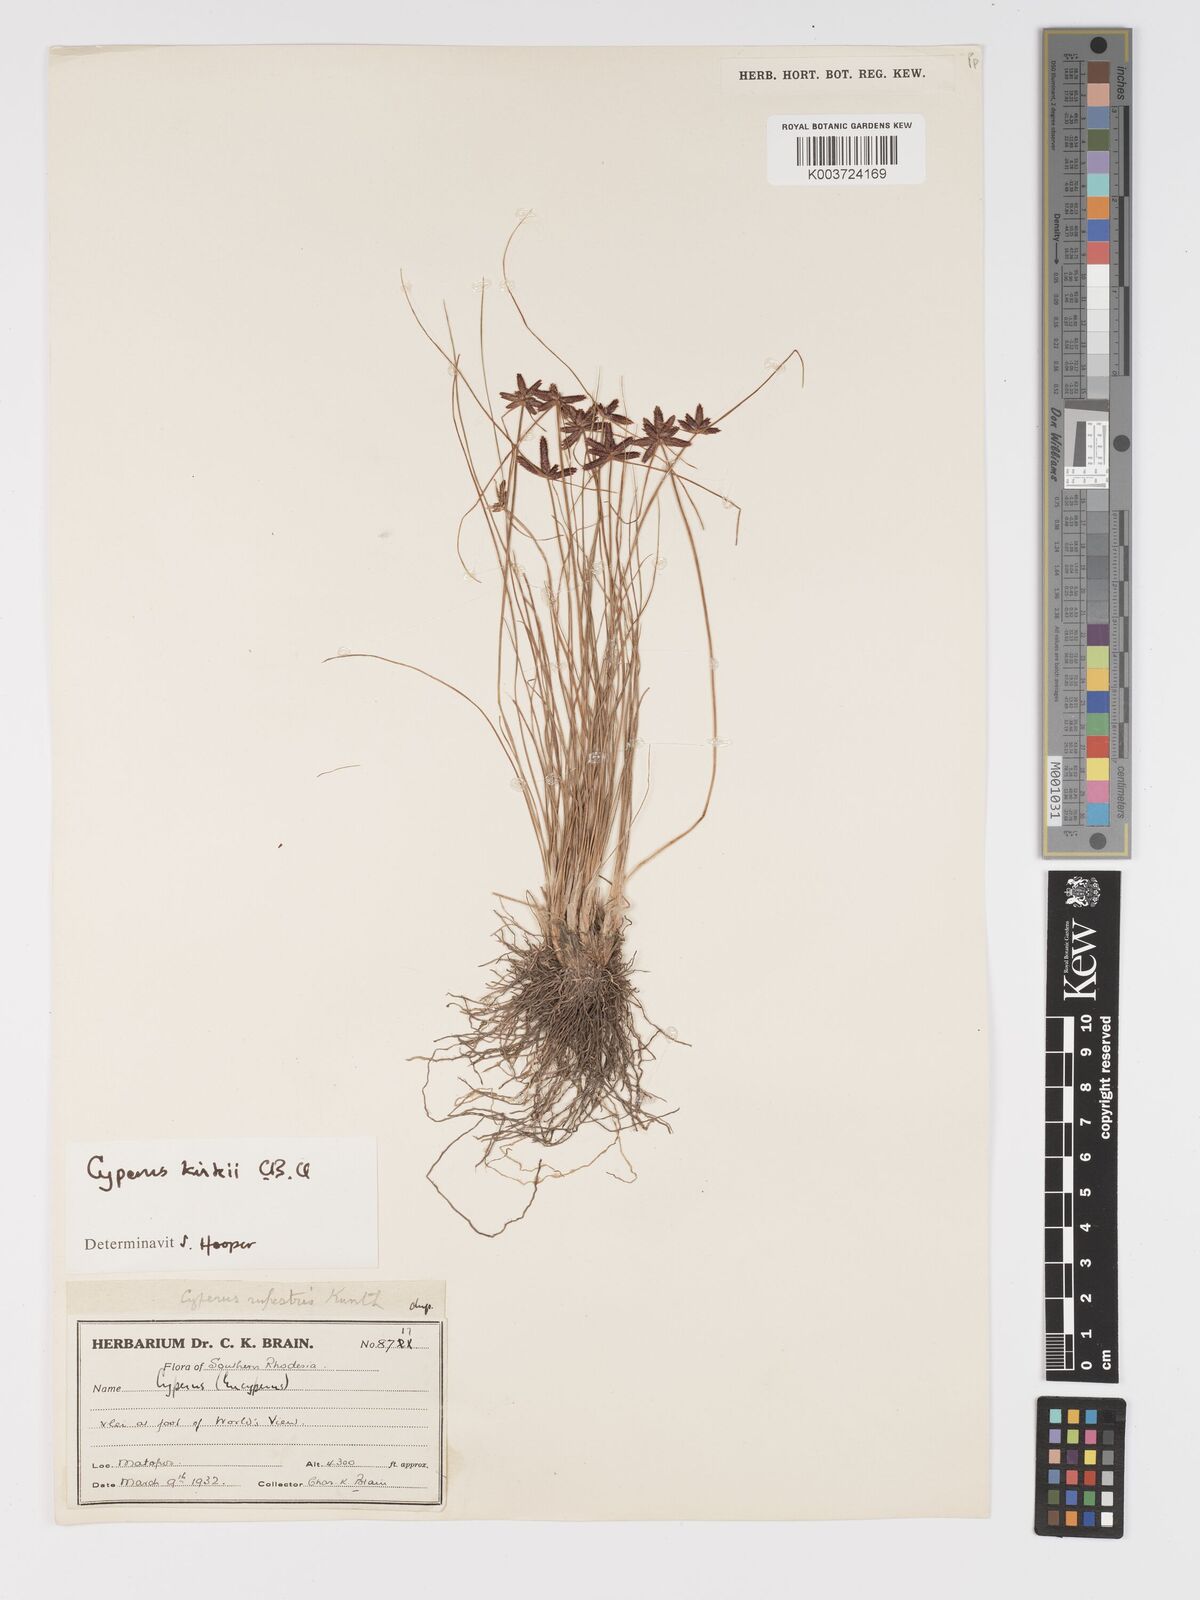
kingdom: Plantae
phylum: Tracheophyta
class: Liliopsida
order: Poales
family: Cyperaceae
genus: Cyperus
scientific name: Cyperus rupestris
